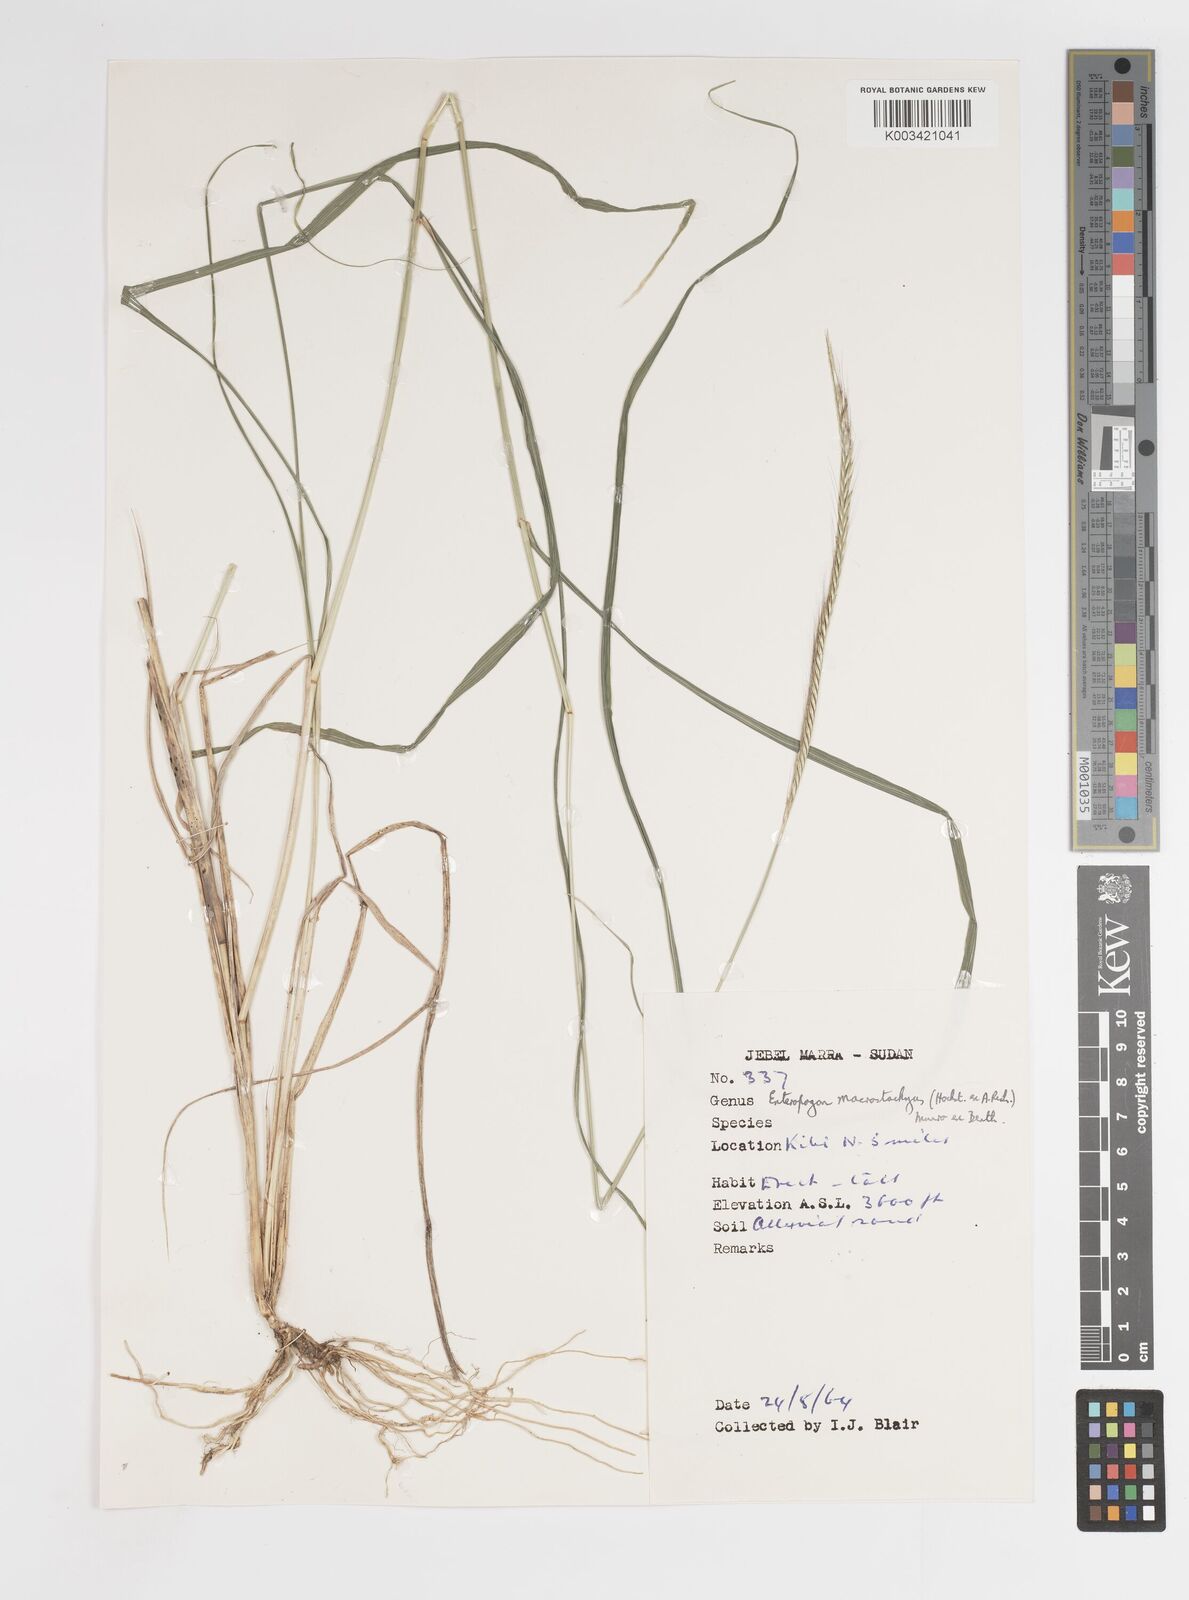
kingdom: Plantae
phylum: Tracheophyta
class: Liliopsida
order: Poales
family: Poaceae
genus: Enteropogon
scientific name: Enteropogon macrostachyus
